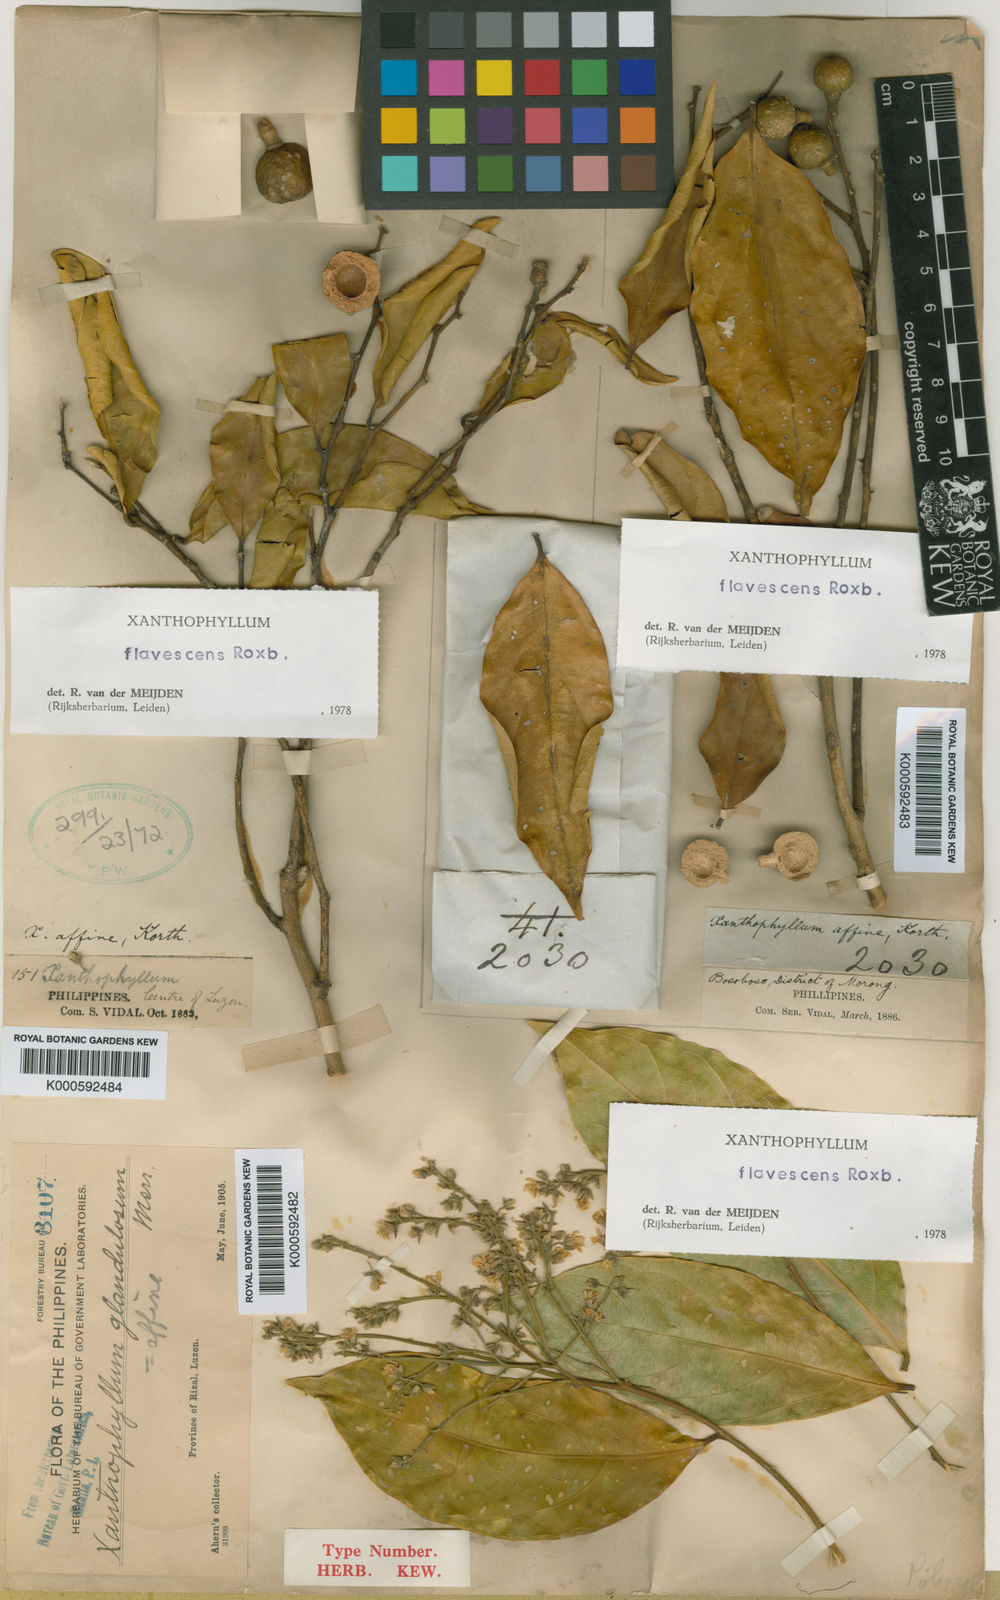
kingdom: Plantae
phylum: Tracheophyta
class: Magnoliopsida
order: Fabales
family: Polygalaceae
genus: Xanthophyllum
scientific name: Xanthophyllum flavescens
